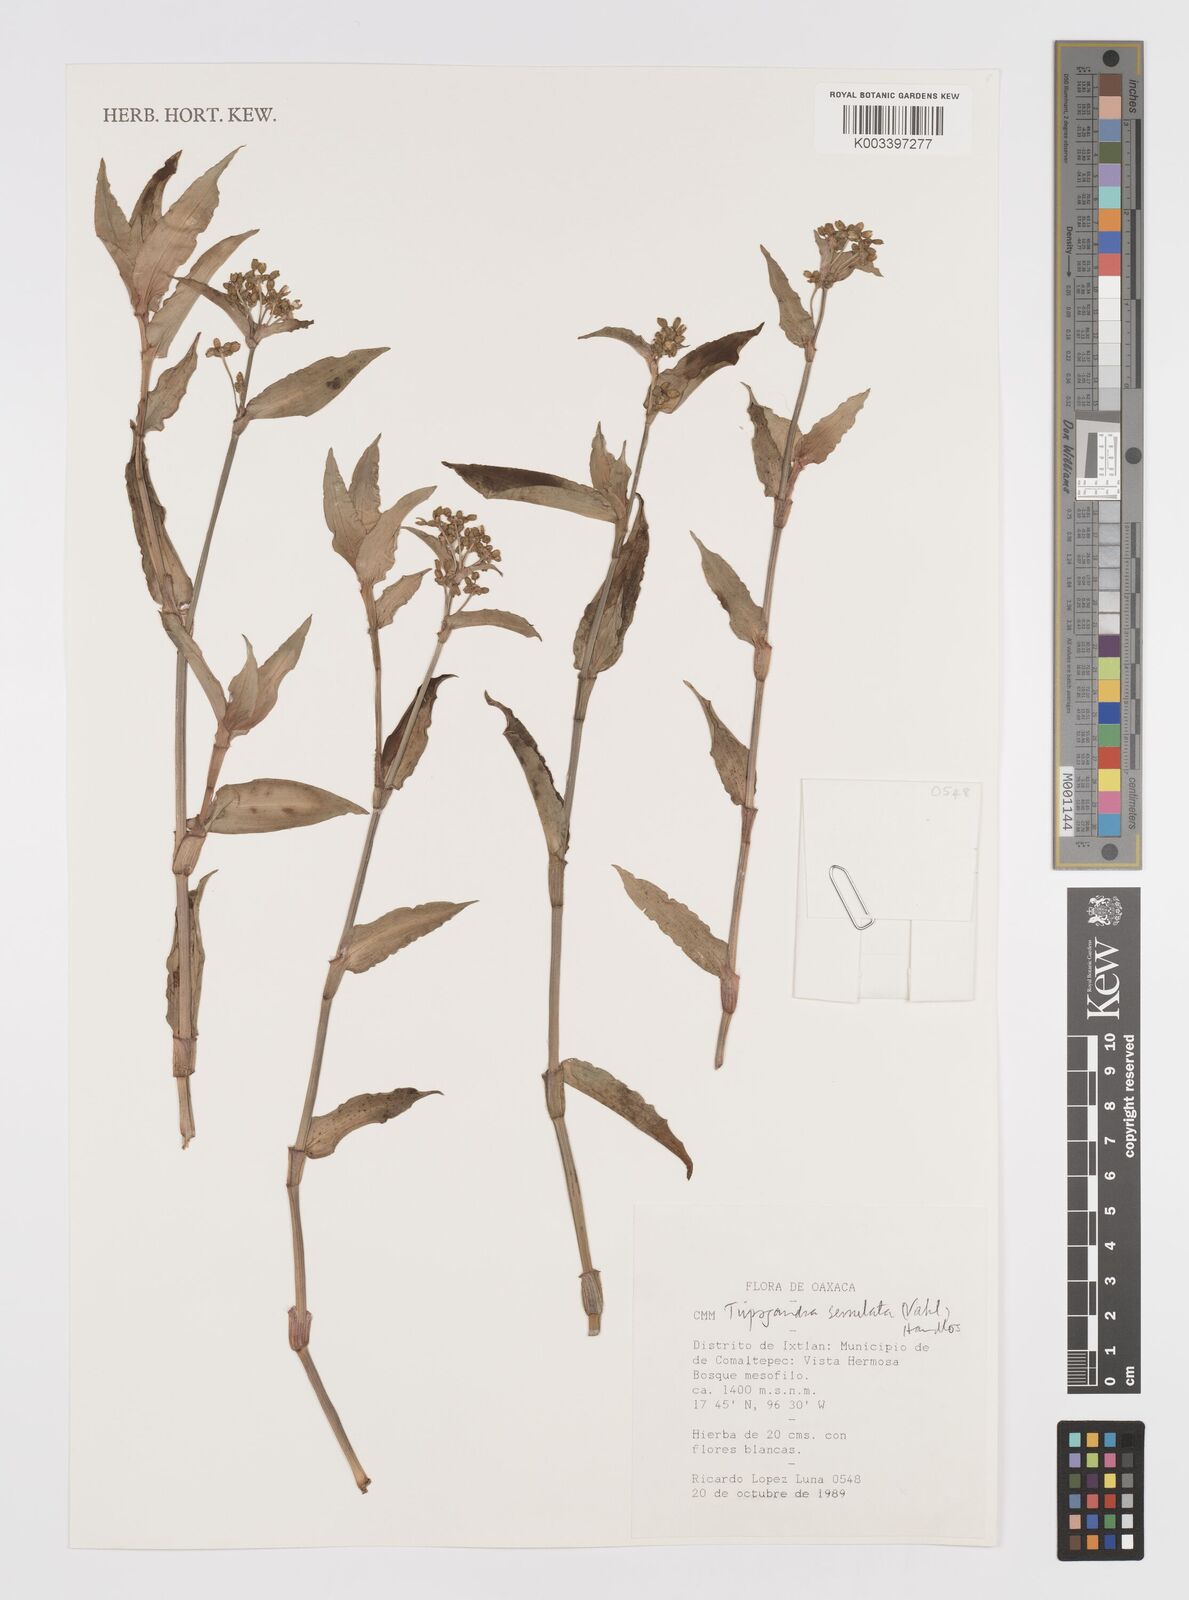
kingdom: Plantae
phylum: Tracheophyta
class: Liliopsida
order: Commelinales
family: Commelinaceae
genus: Callisia
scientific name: Callisia serrulata
